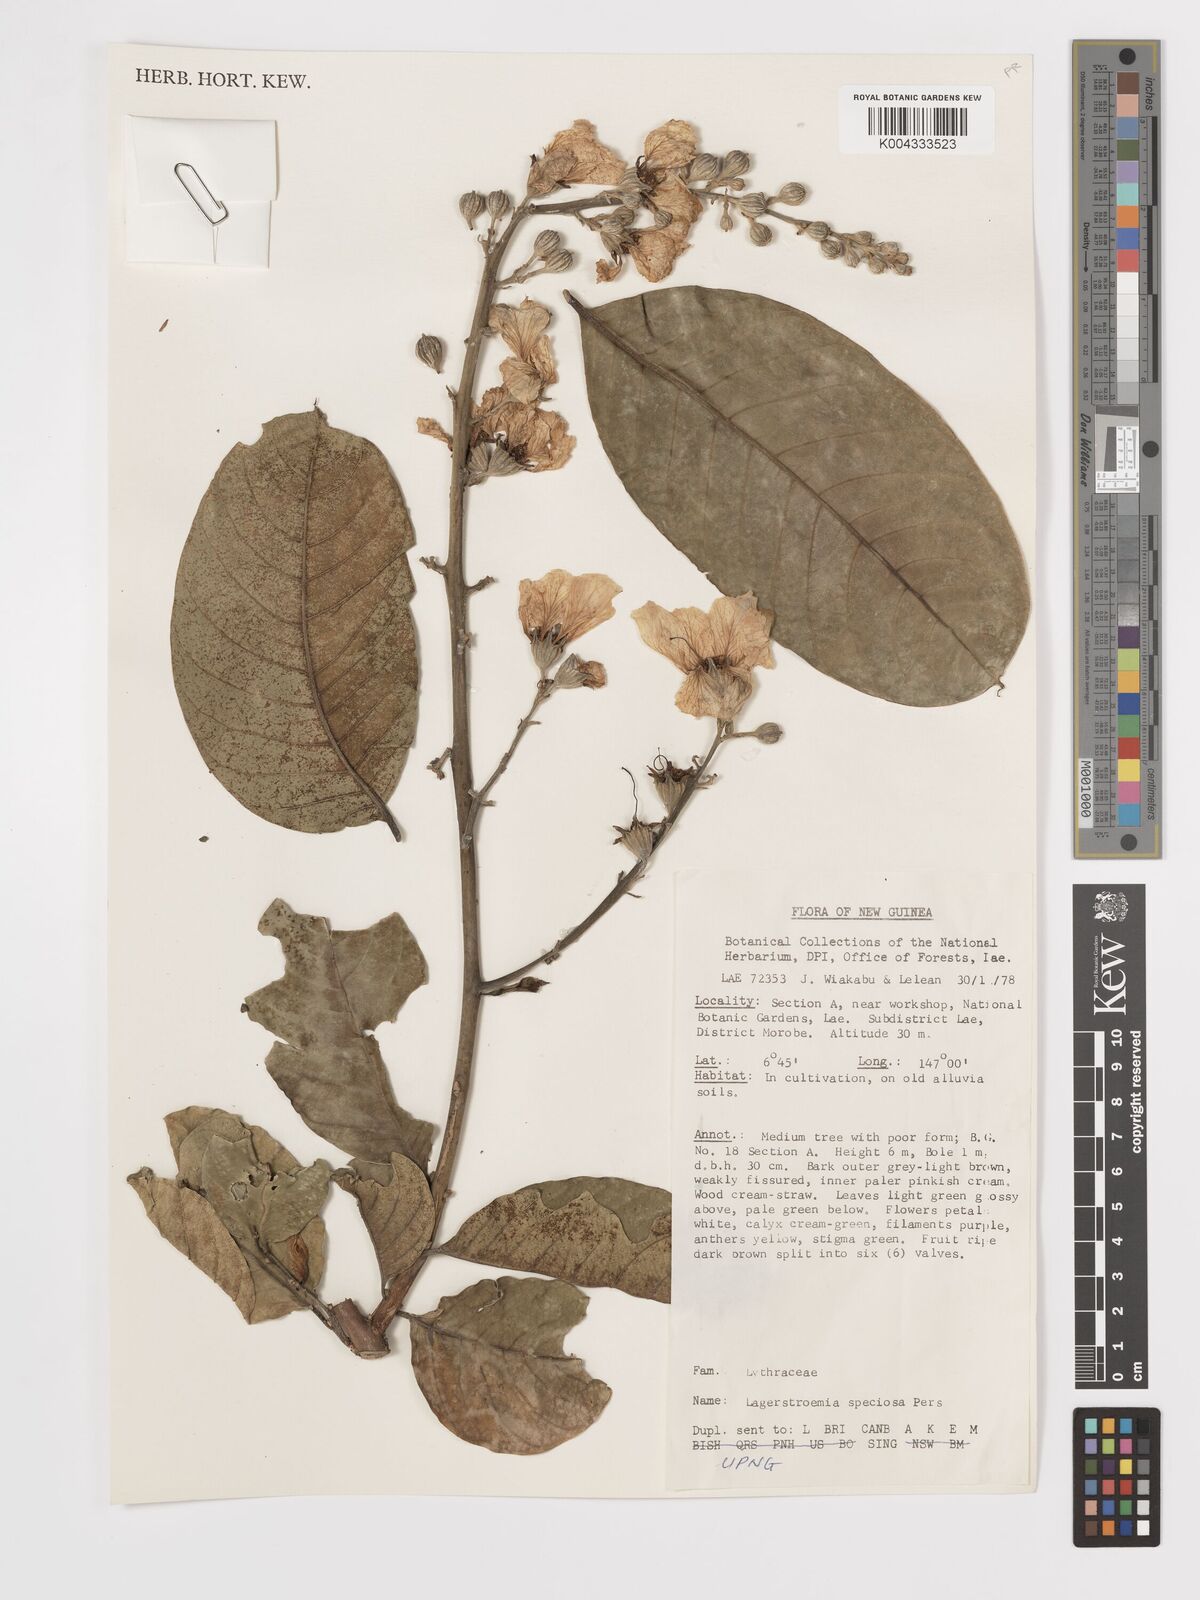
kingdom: Plantae
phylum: Tracheophyta
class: Magnoliopsida
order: Myrtales
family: Lythraceae
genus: Lagerstroemia
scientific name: Lagerstroemia speciosa
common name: Queen's crape-myrtle
